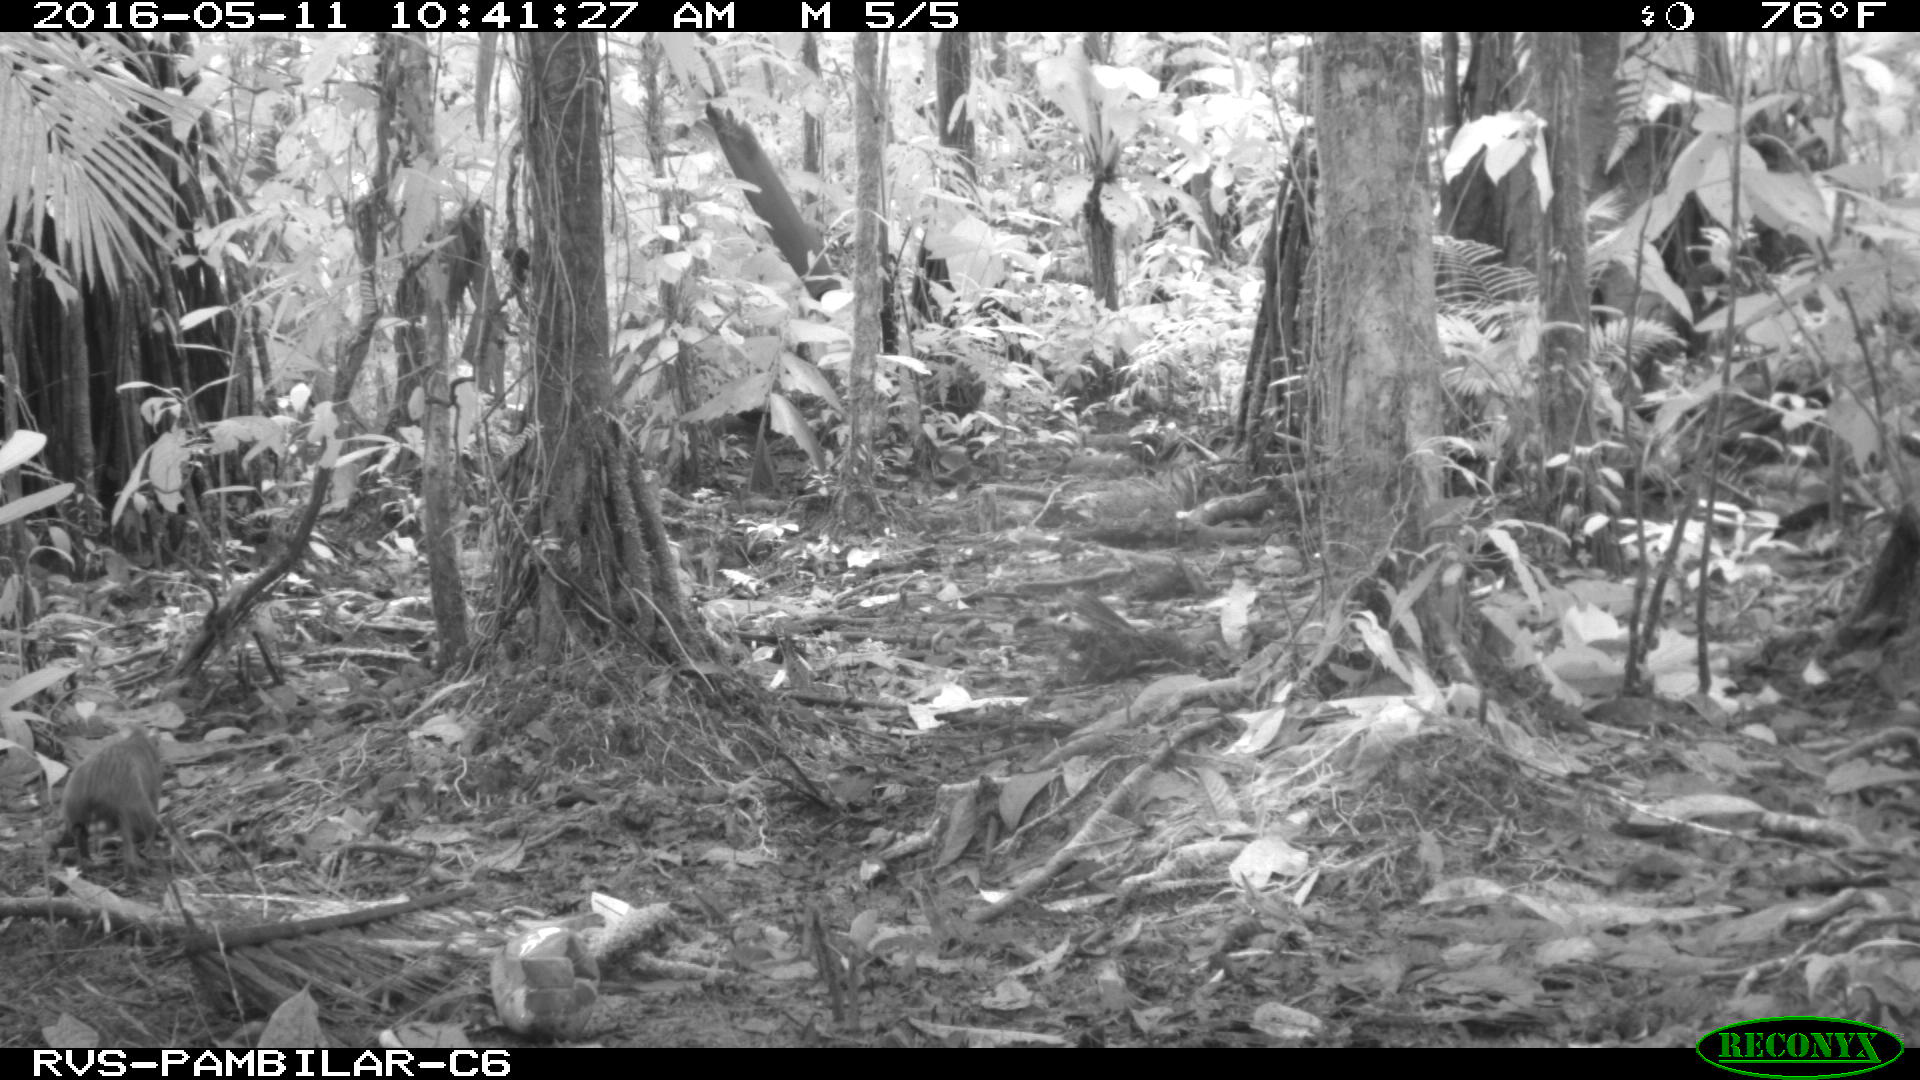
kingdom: Animalia
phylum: Chordata
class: Mammalia
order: Rodentia
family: Dasyproctidae
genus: Dasyprocta
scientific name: Dasyprocta punctata
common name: Central american agouti
